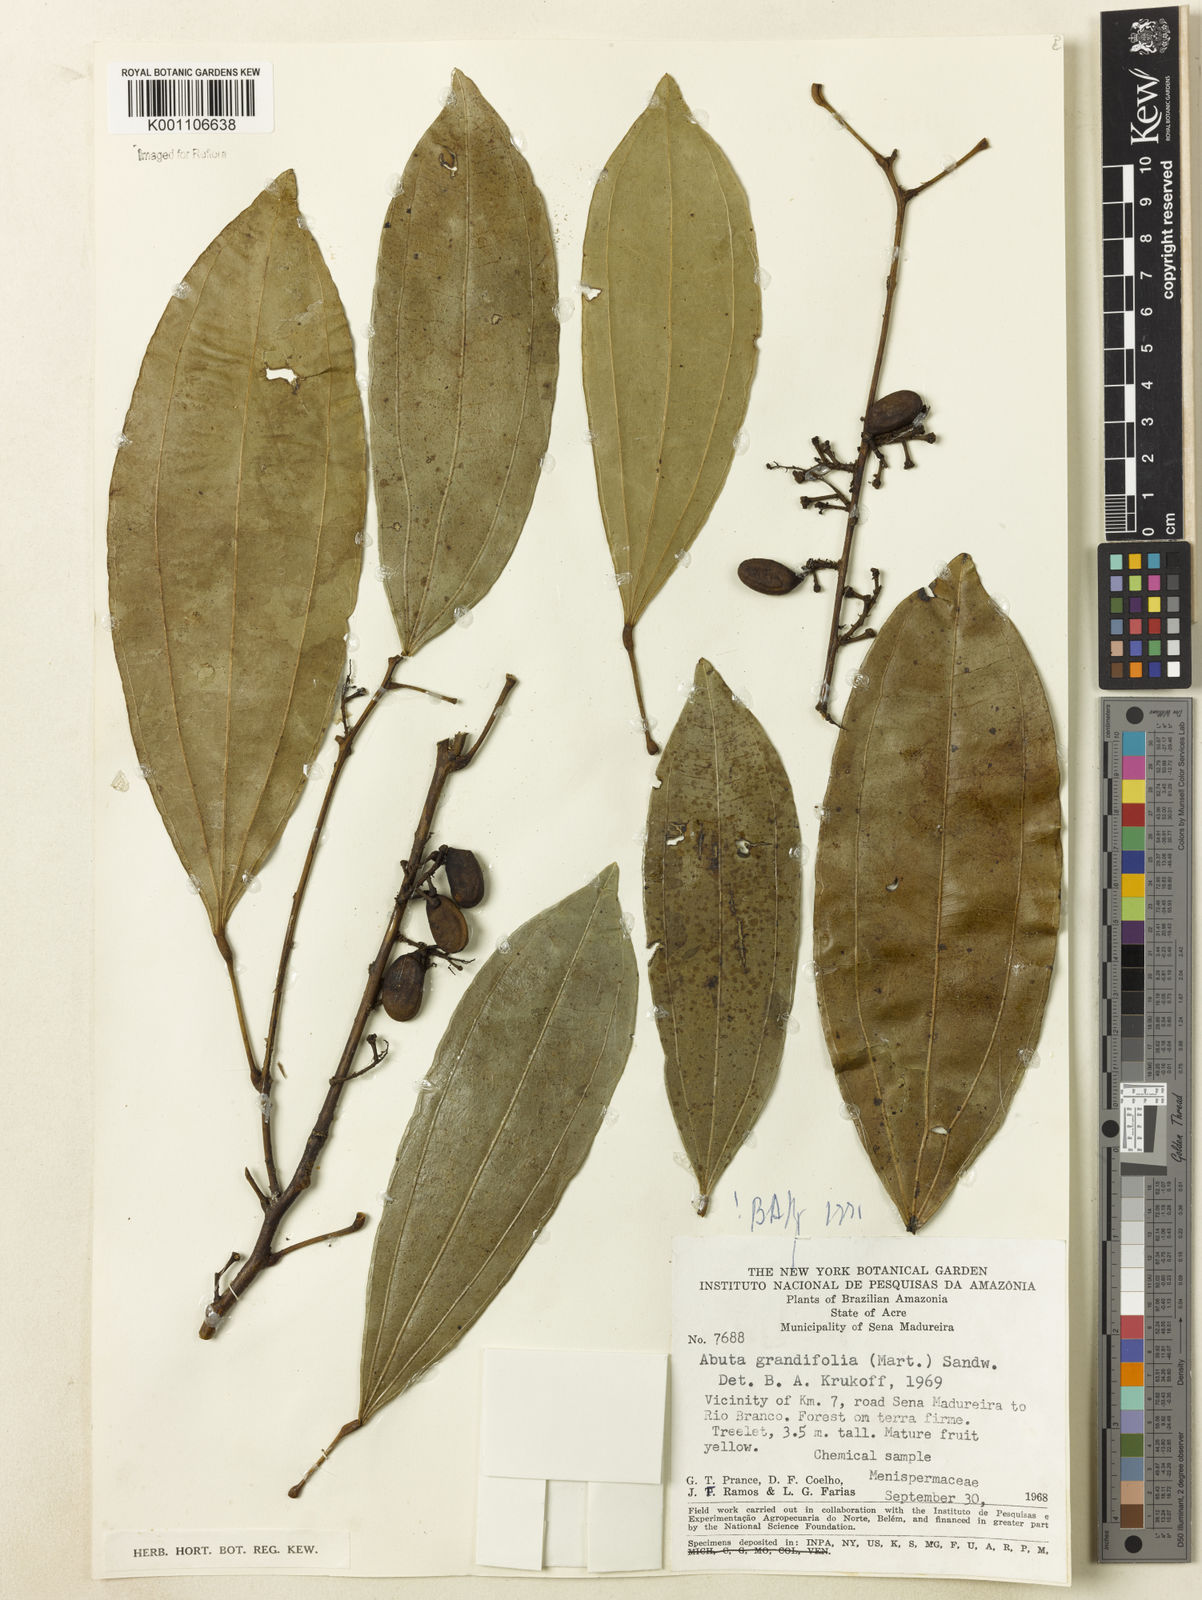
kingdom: Plantae
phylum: Tracheophyta
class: Magnoliopsida
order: Ranunculales
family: Menispermaceae
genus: Abuta
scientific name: Abuta grandifolia
